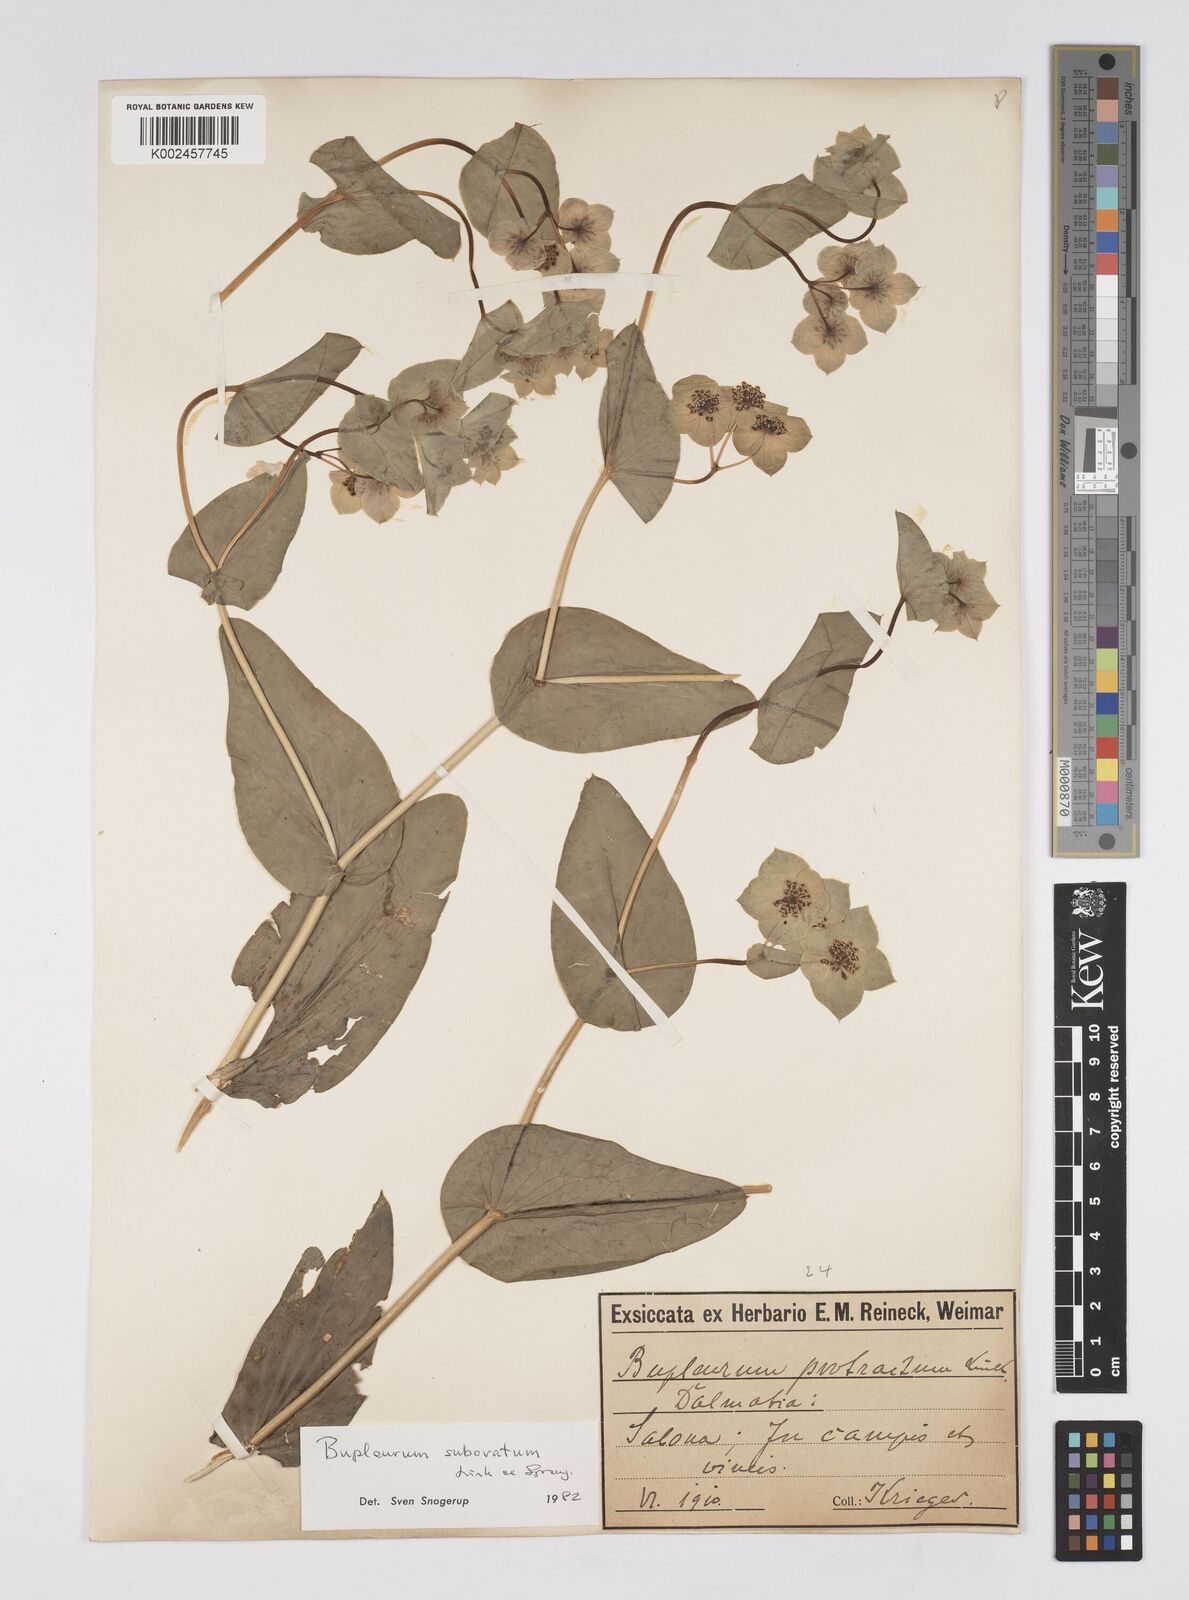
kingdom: Plantae
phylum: Tracheophyta
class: Magnoliopsida
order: Apiales
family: Apiaceae
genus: Bupleurum
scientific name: Bupleurum subovatum
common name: False thorow-wax
